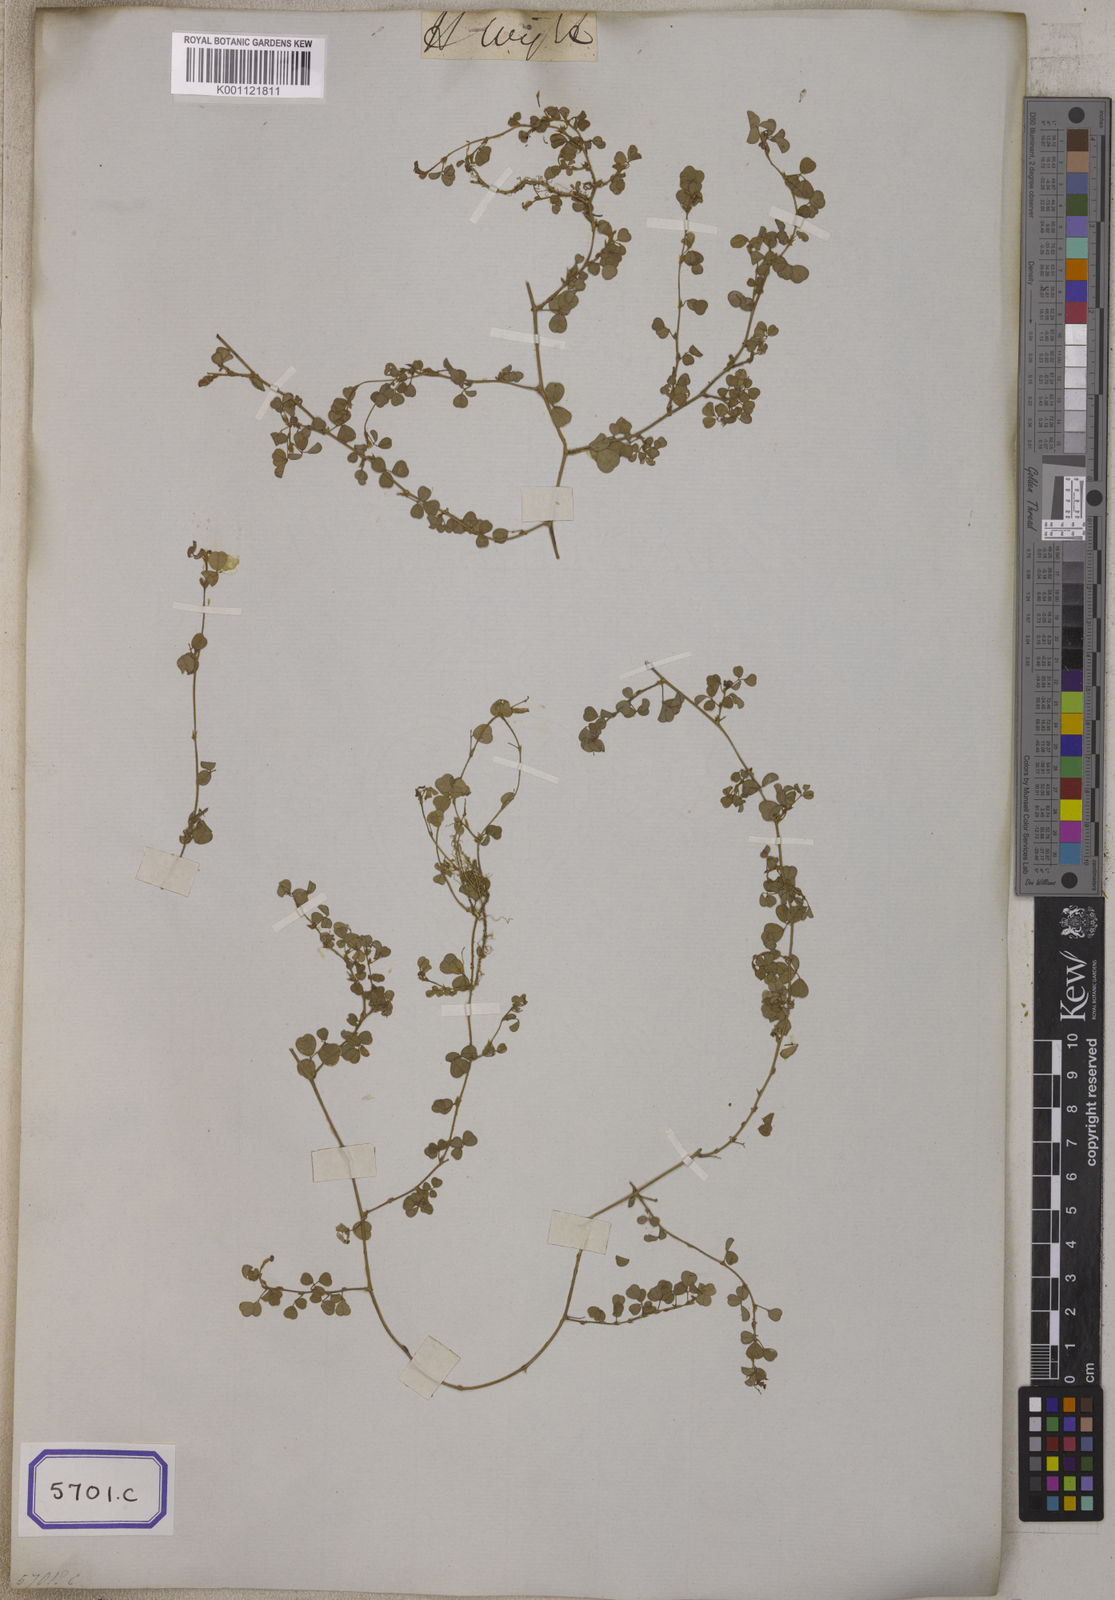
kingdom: Plantae
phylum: Tracheophyta
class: Magnoliopsida
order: Fabales
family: Fabaceae
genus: Desmodium
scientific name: Desmodium
